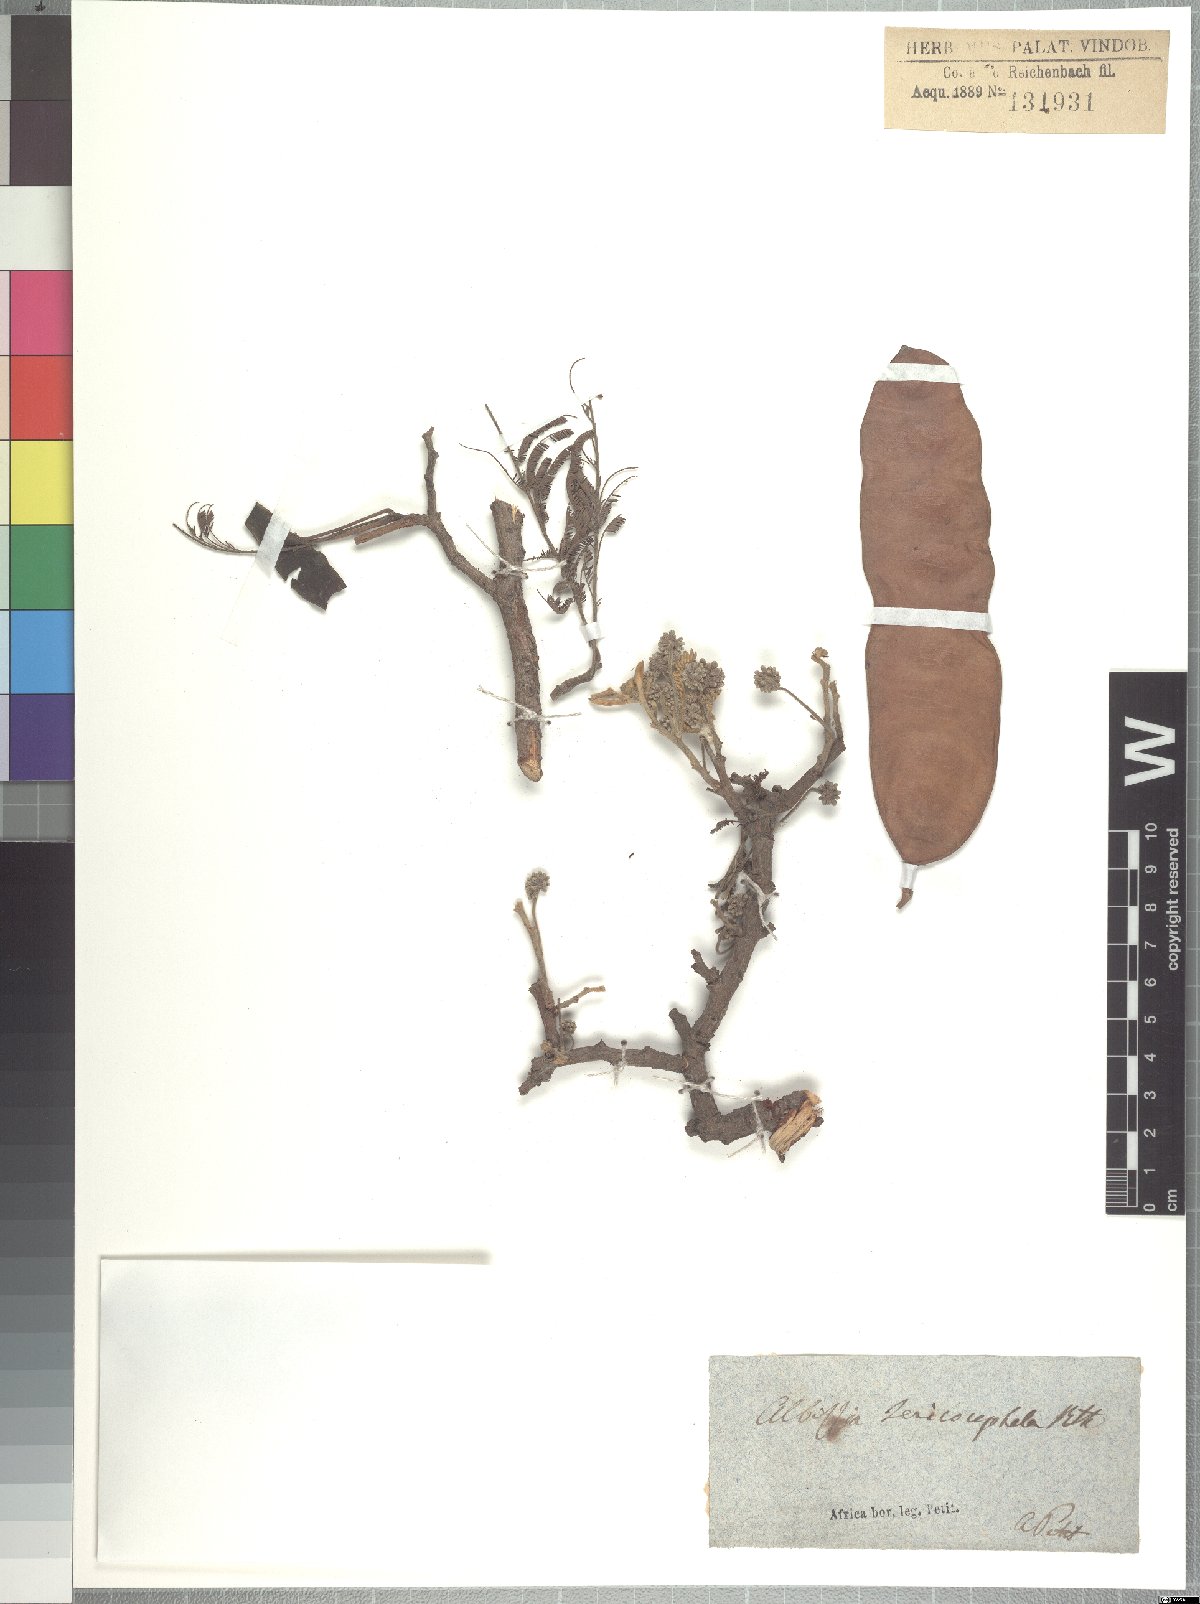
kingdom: Plantae
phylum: Tracheophyta
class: Magnoliopsida
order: Fabales
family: Fabaceae
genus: Albizia
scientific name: Albizia amara
